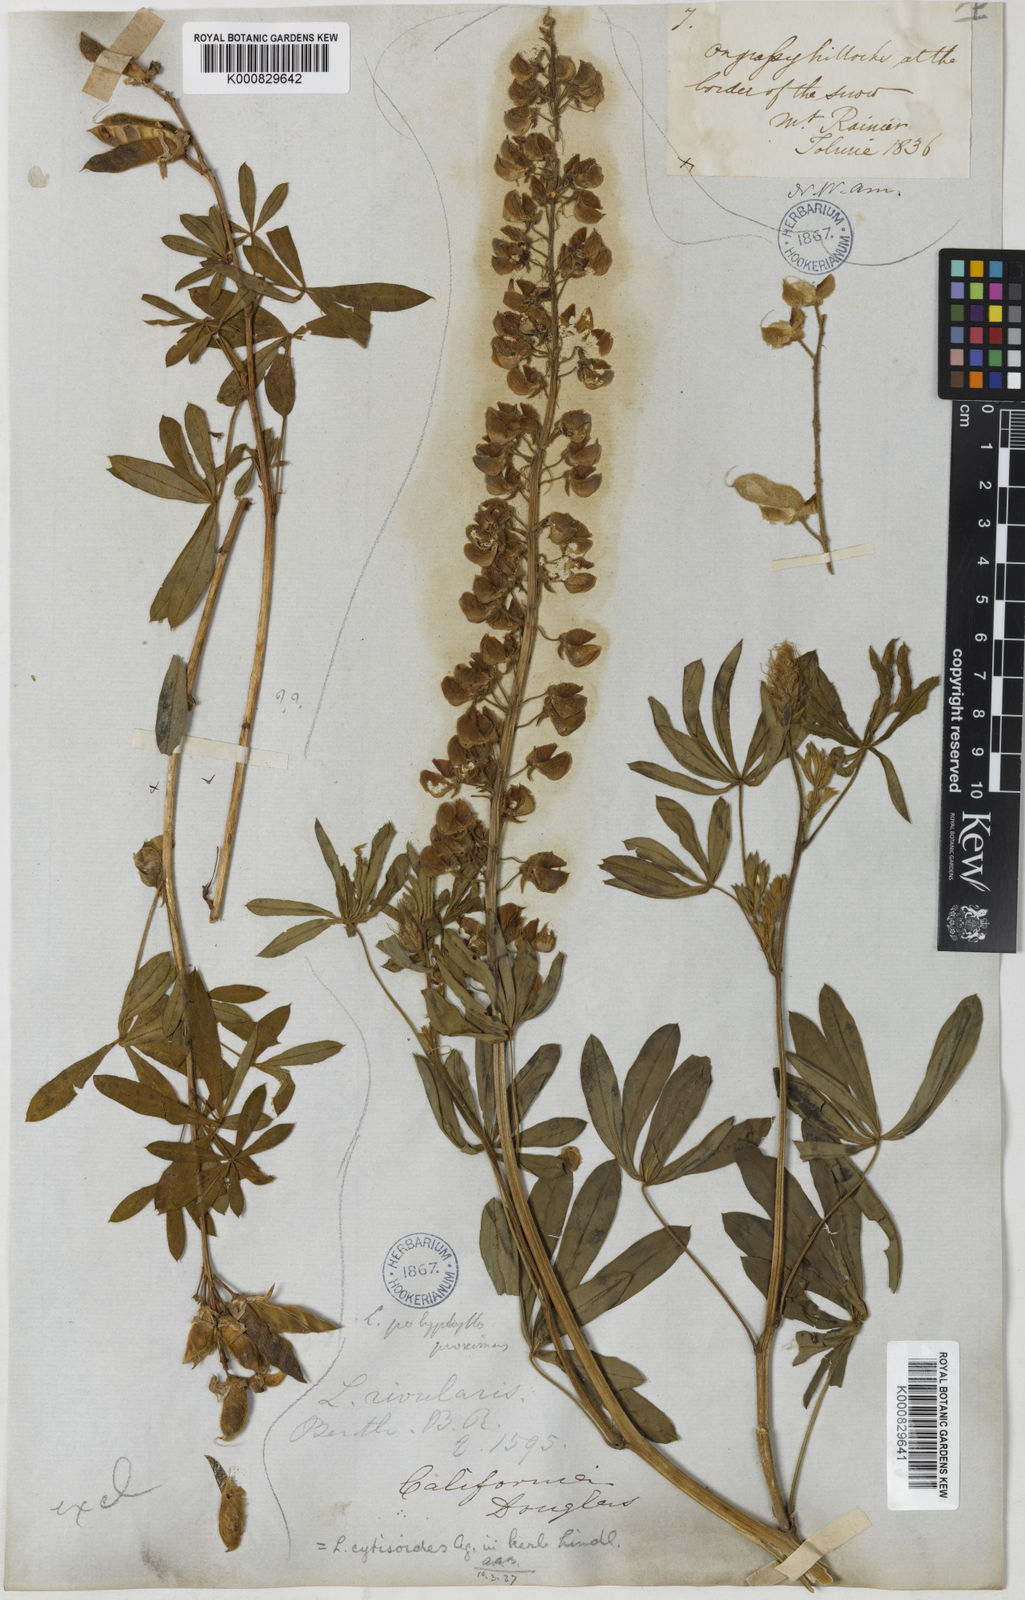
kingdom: Plantae
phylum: Tracheophyta
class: Magnoliopsida
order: Fabales
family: Fabaceae
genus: Lupinus
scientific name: Lupinus latifolius
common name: Broad-leaved lupine
